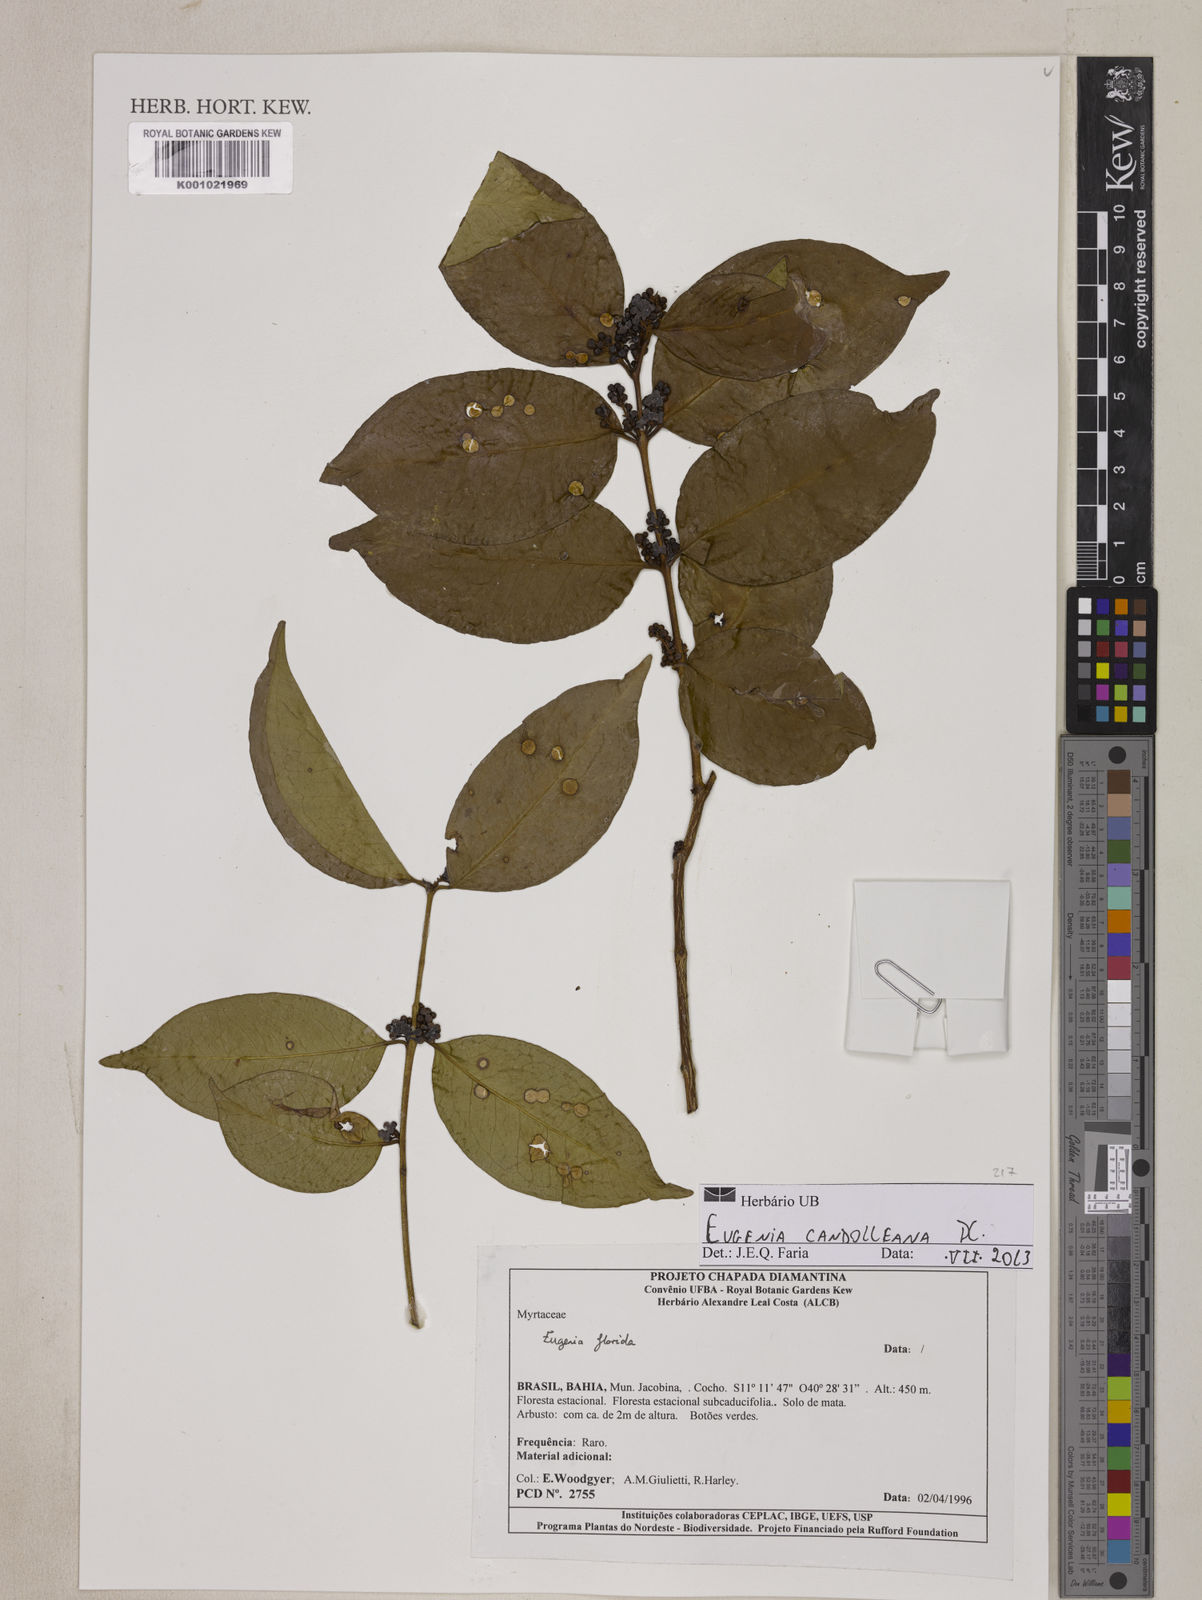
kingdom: Plantae
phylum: Tracheophyta
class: Magnoliopsida
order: Myrtales
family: Myrtaceae
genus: Eugenia
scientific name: Eugenia candolleana
